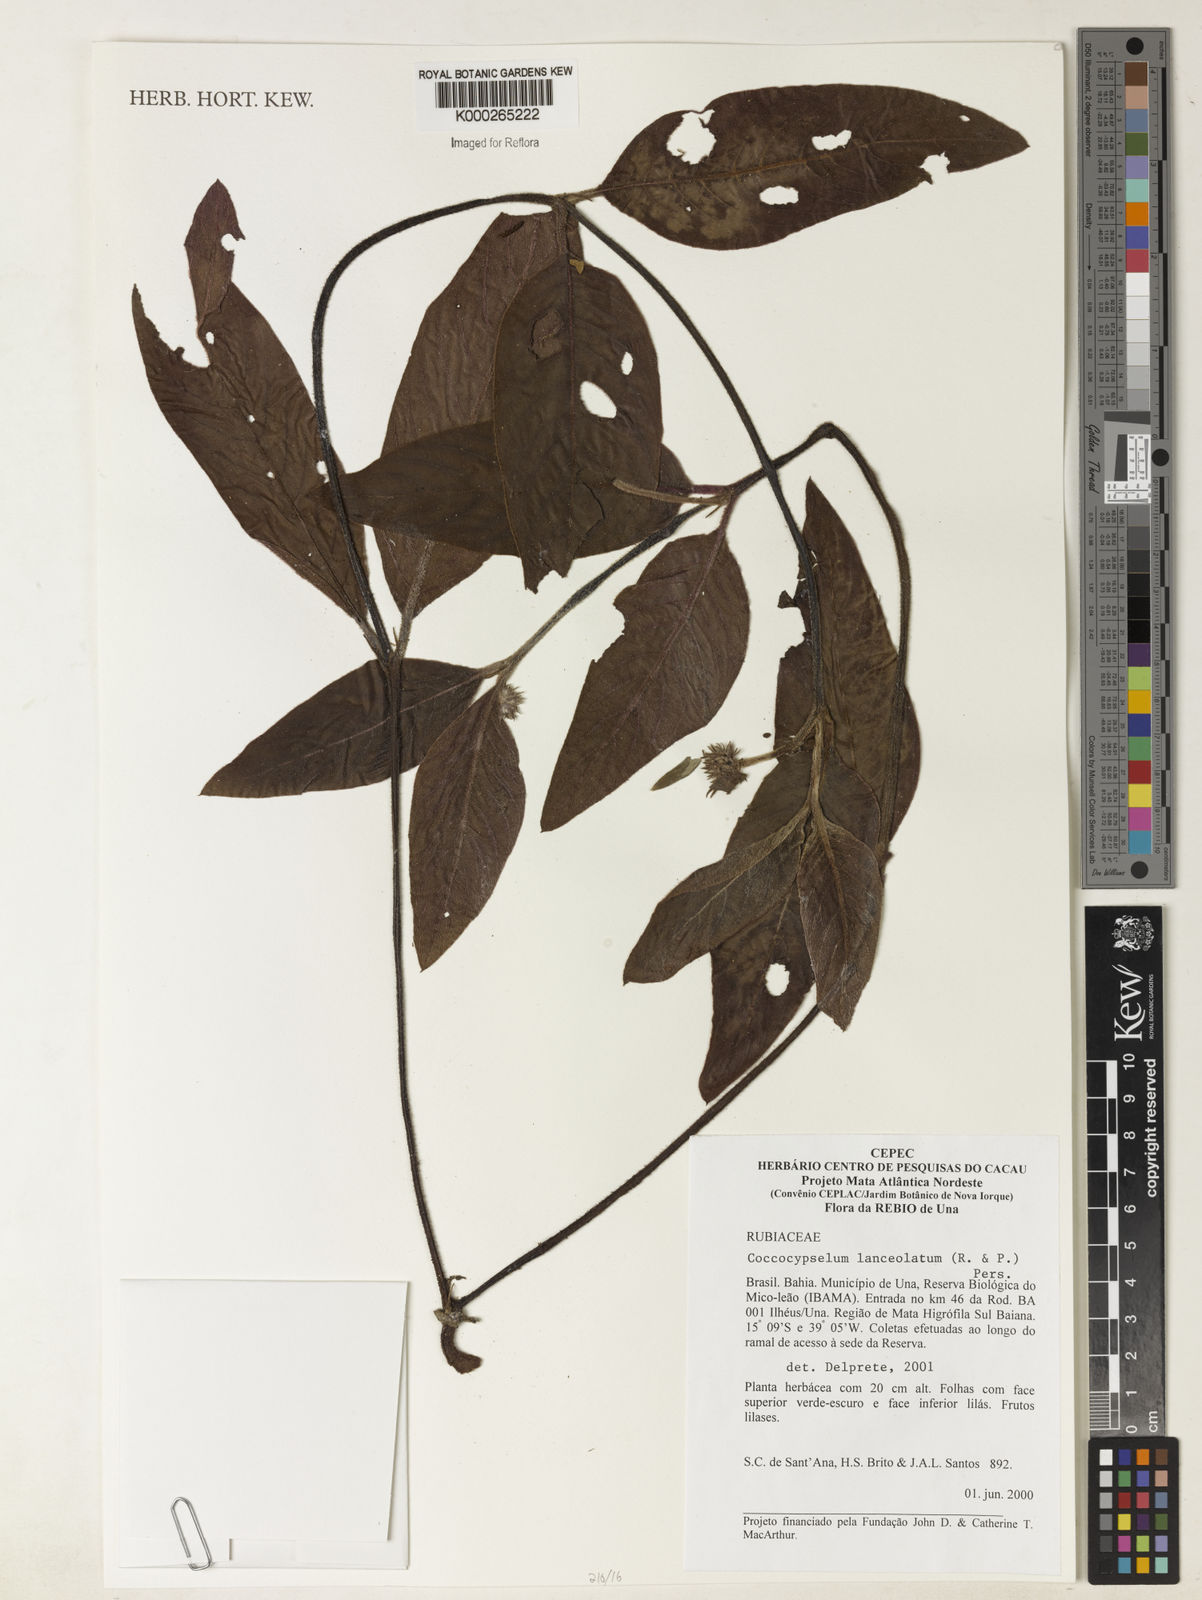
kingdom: Plantae
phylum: Tracheophyta
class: Magnoliopsida
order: Gentianales
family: Rubiaceae
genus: Coccocypselum
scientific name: Coccocypselum lanceolatum
